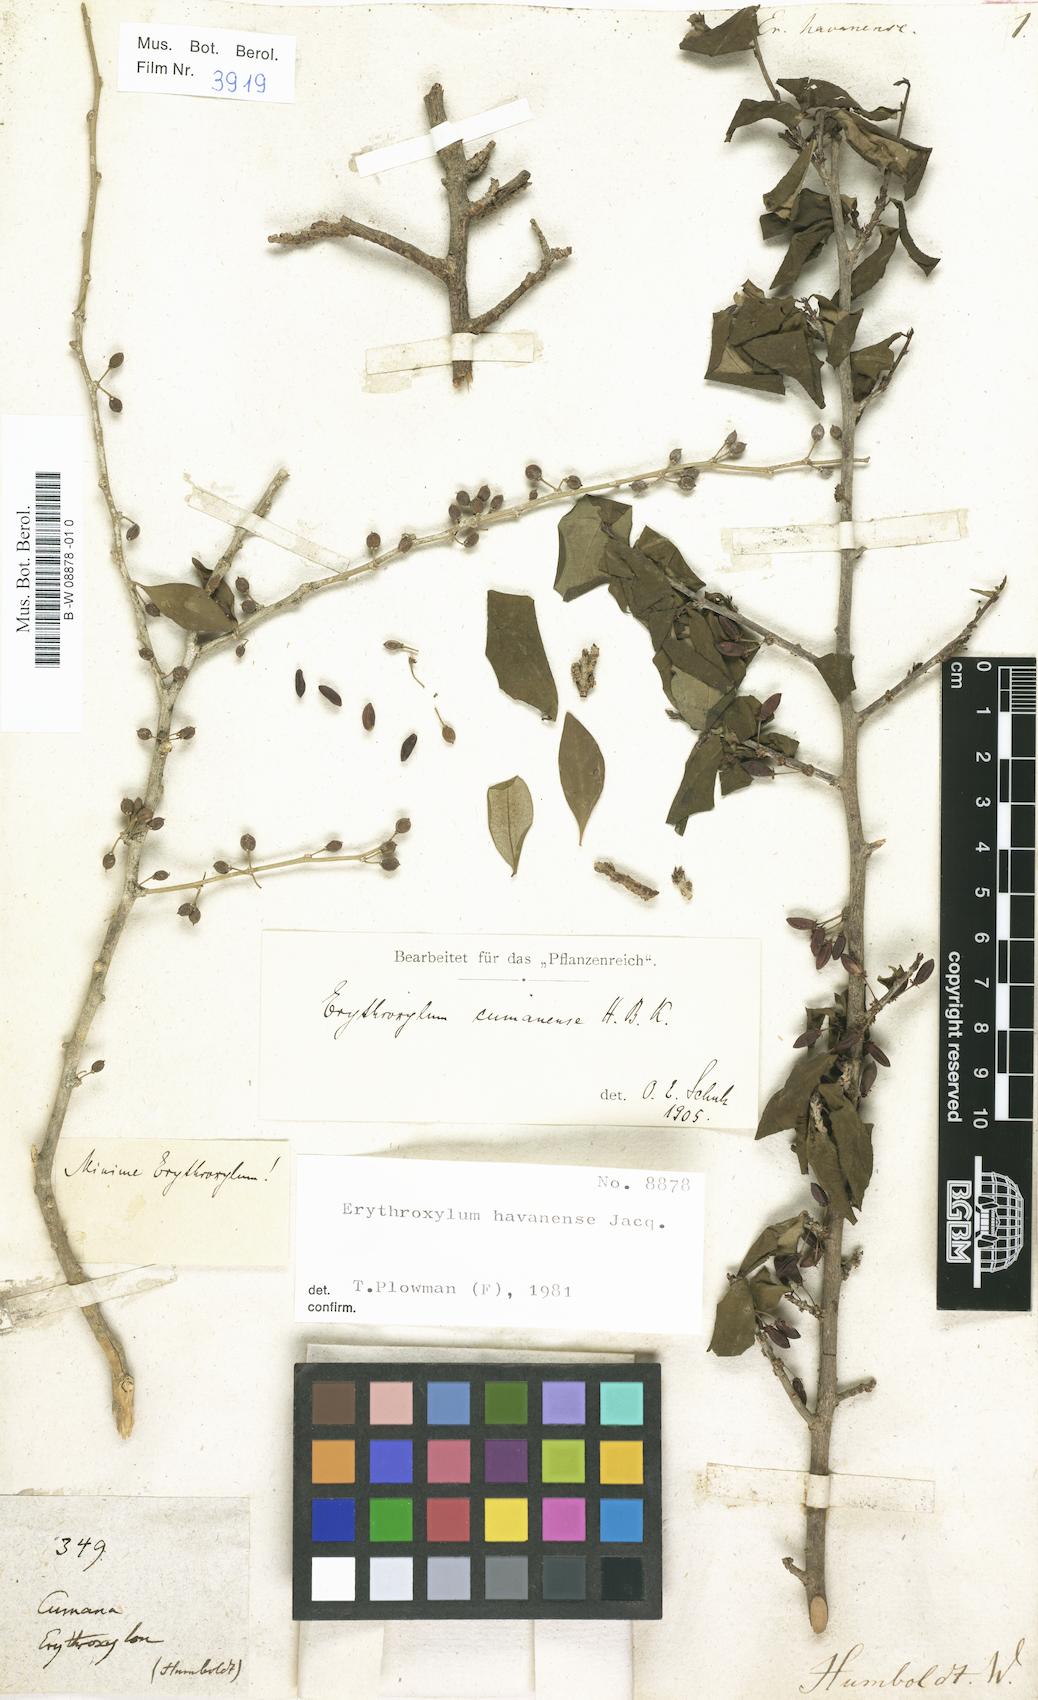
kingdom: Plantae
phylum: Tracheophyta
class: Magnoliopsida
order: Malpighiales
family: Erythroxylaceae
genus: Erythroxylum
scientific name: Erythroxylum havanense
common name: Bracelet
